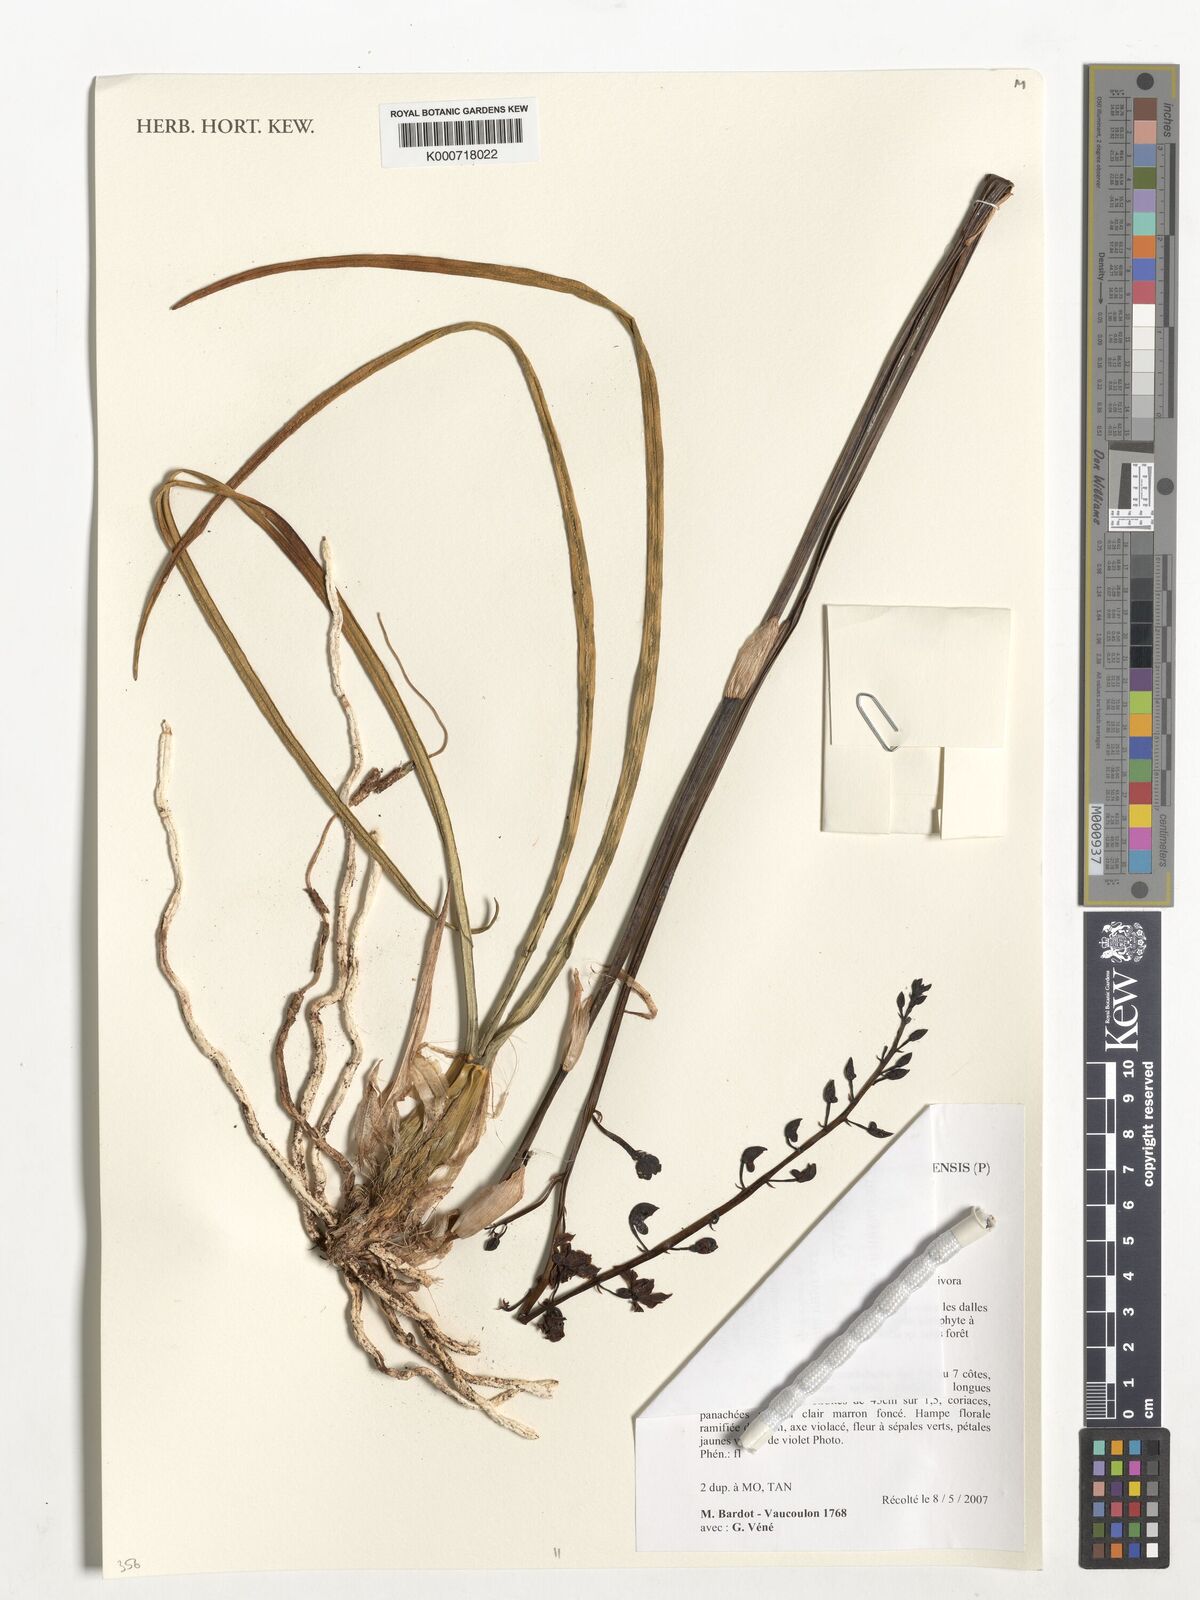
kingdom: Plantae
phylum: Tracheophyta
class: Liliopsida
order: Asparagales
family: Orchidaceae
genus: Eulophia
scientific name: Eulophia
